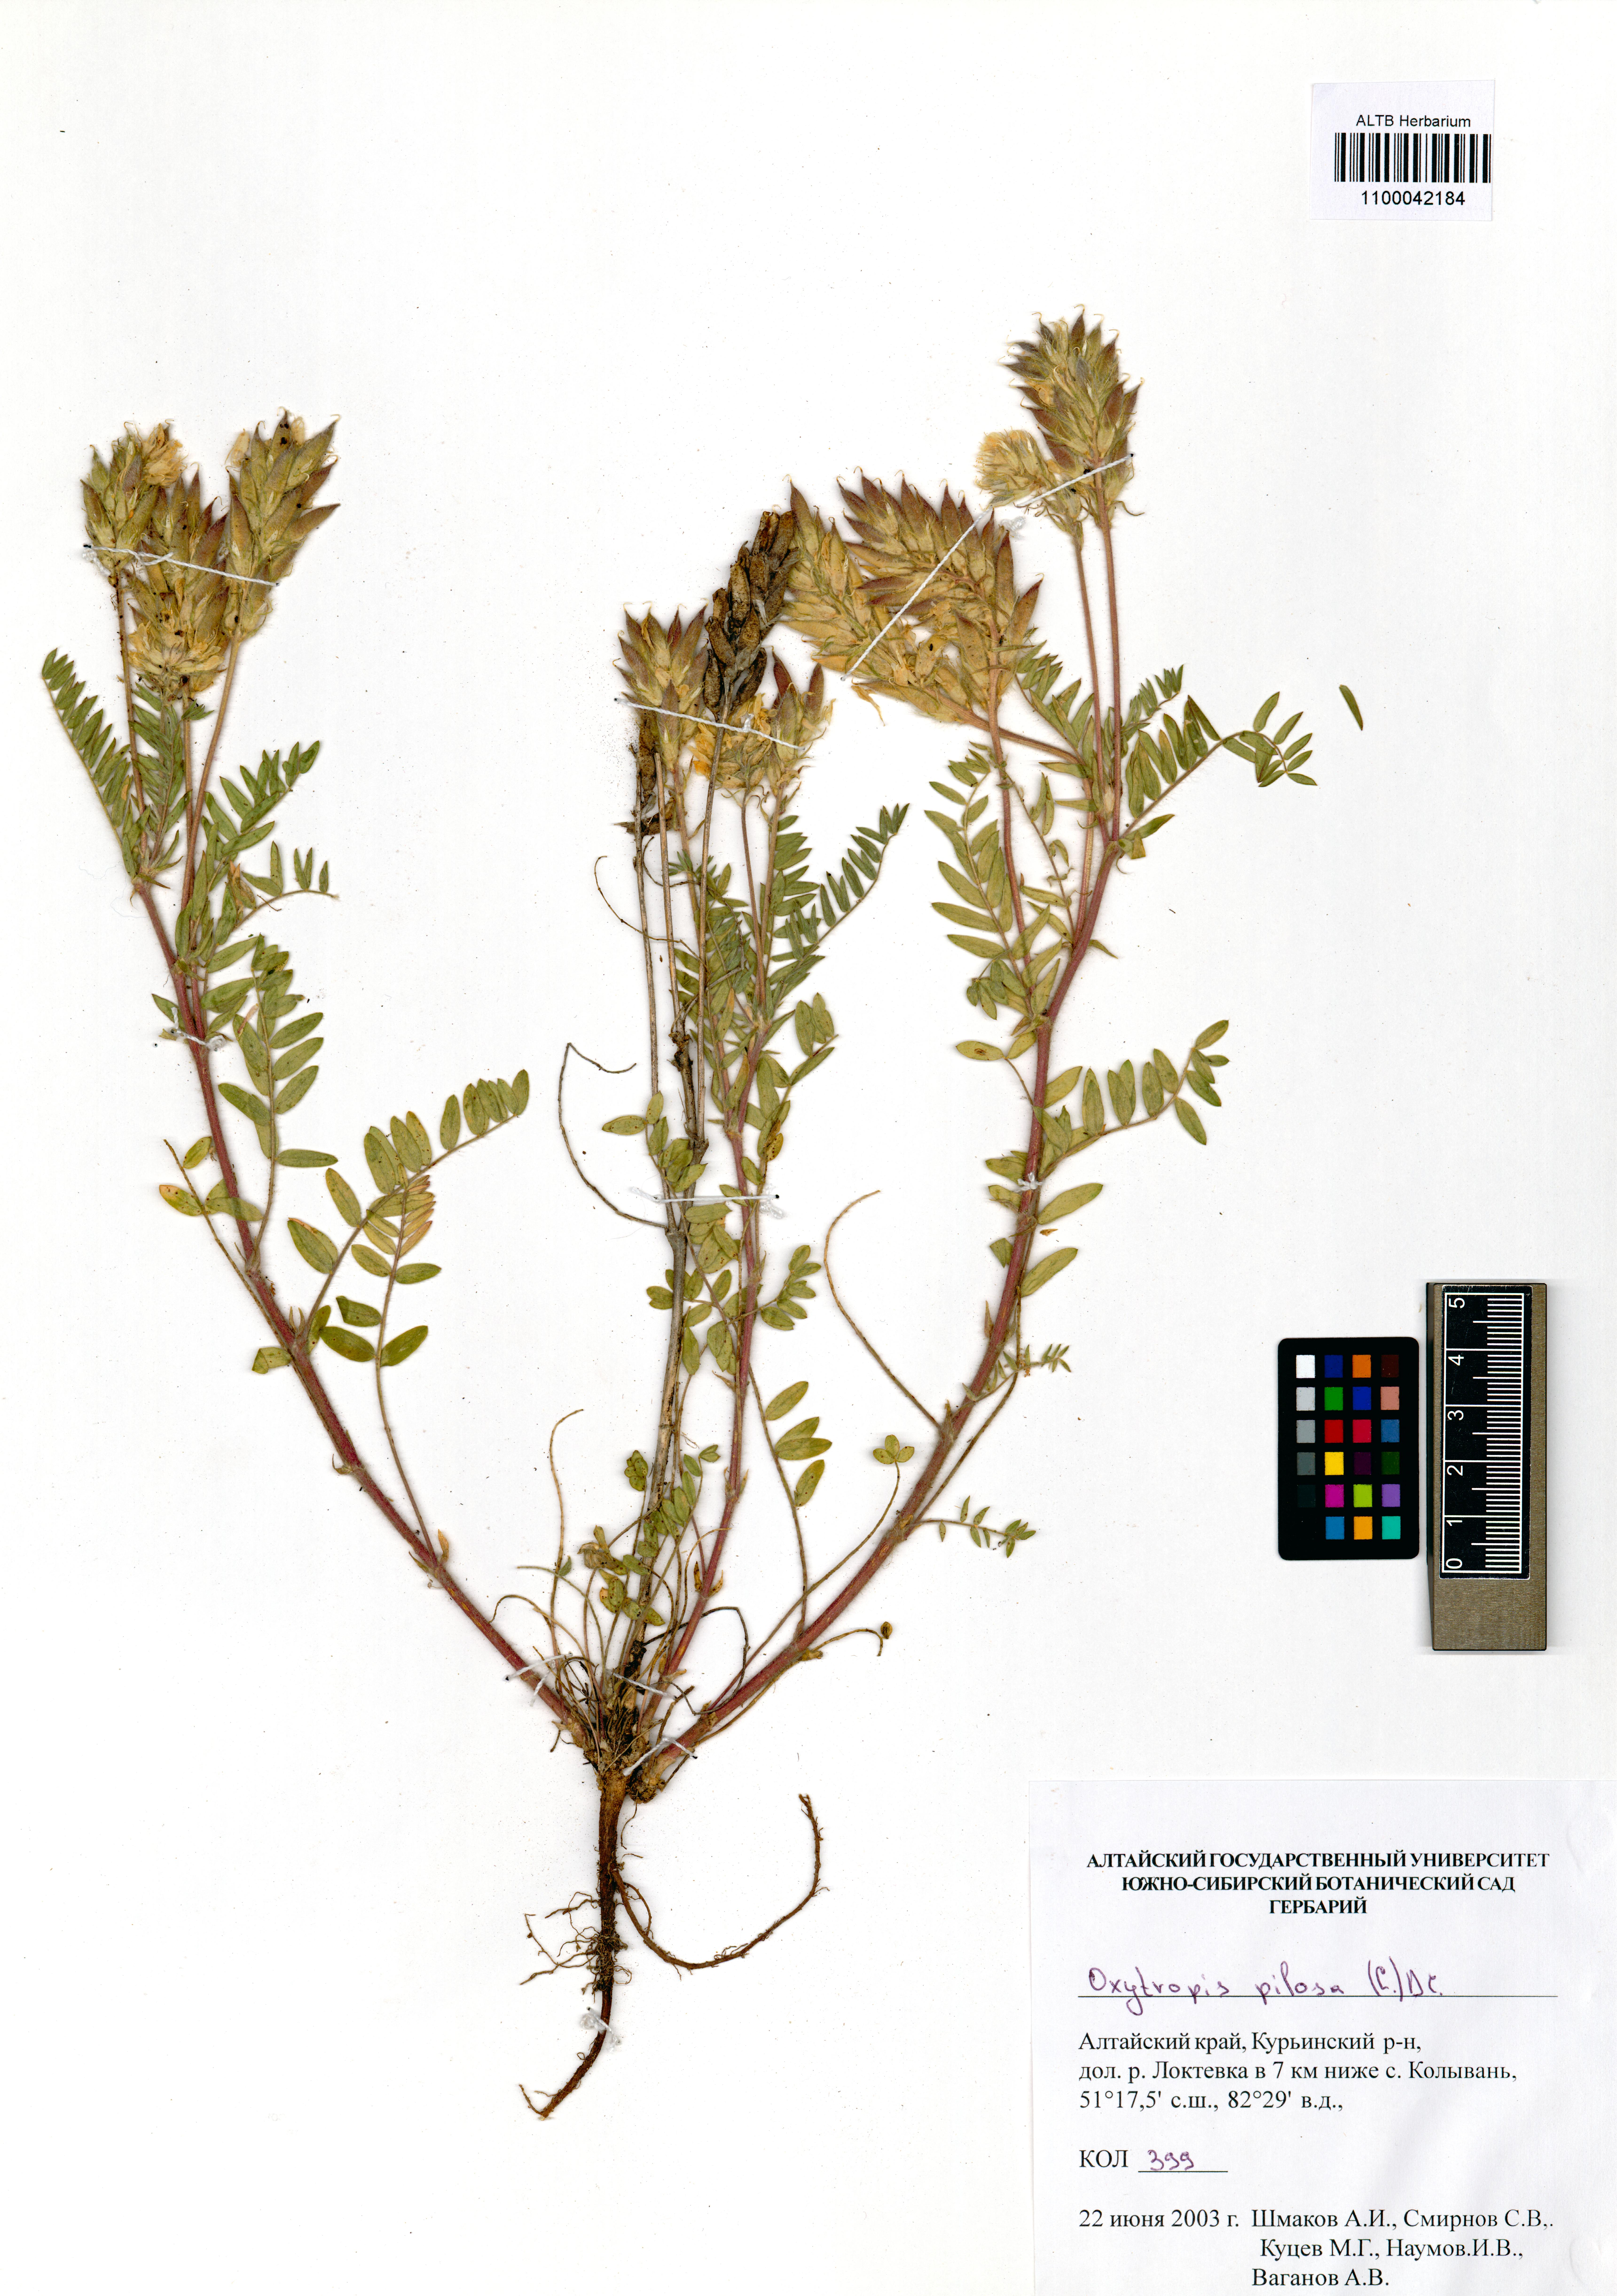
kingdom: Plantae
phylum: Tracheophyta
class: Magnoliopsida
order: Fabales
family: Fabaceae
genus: Oxytropis
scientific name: Oxytropis pilosa
